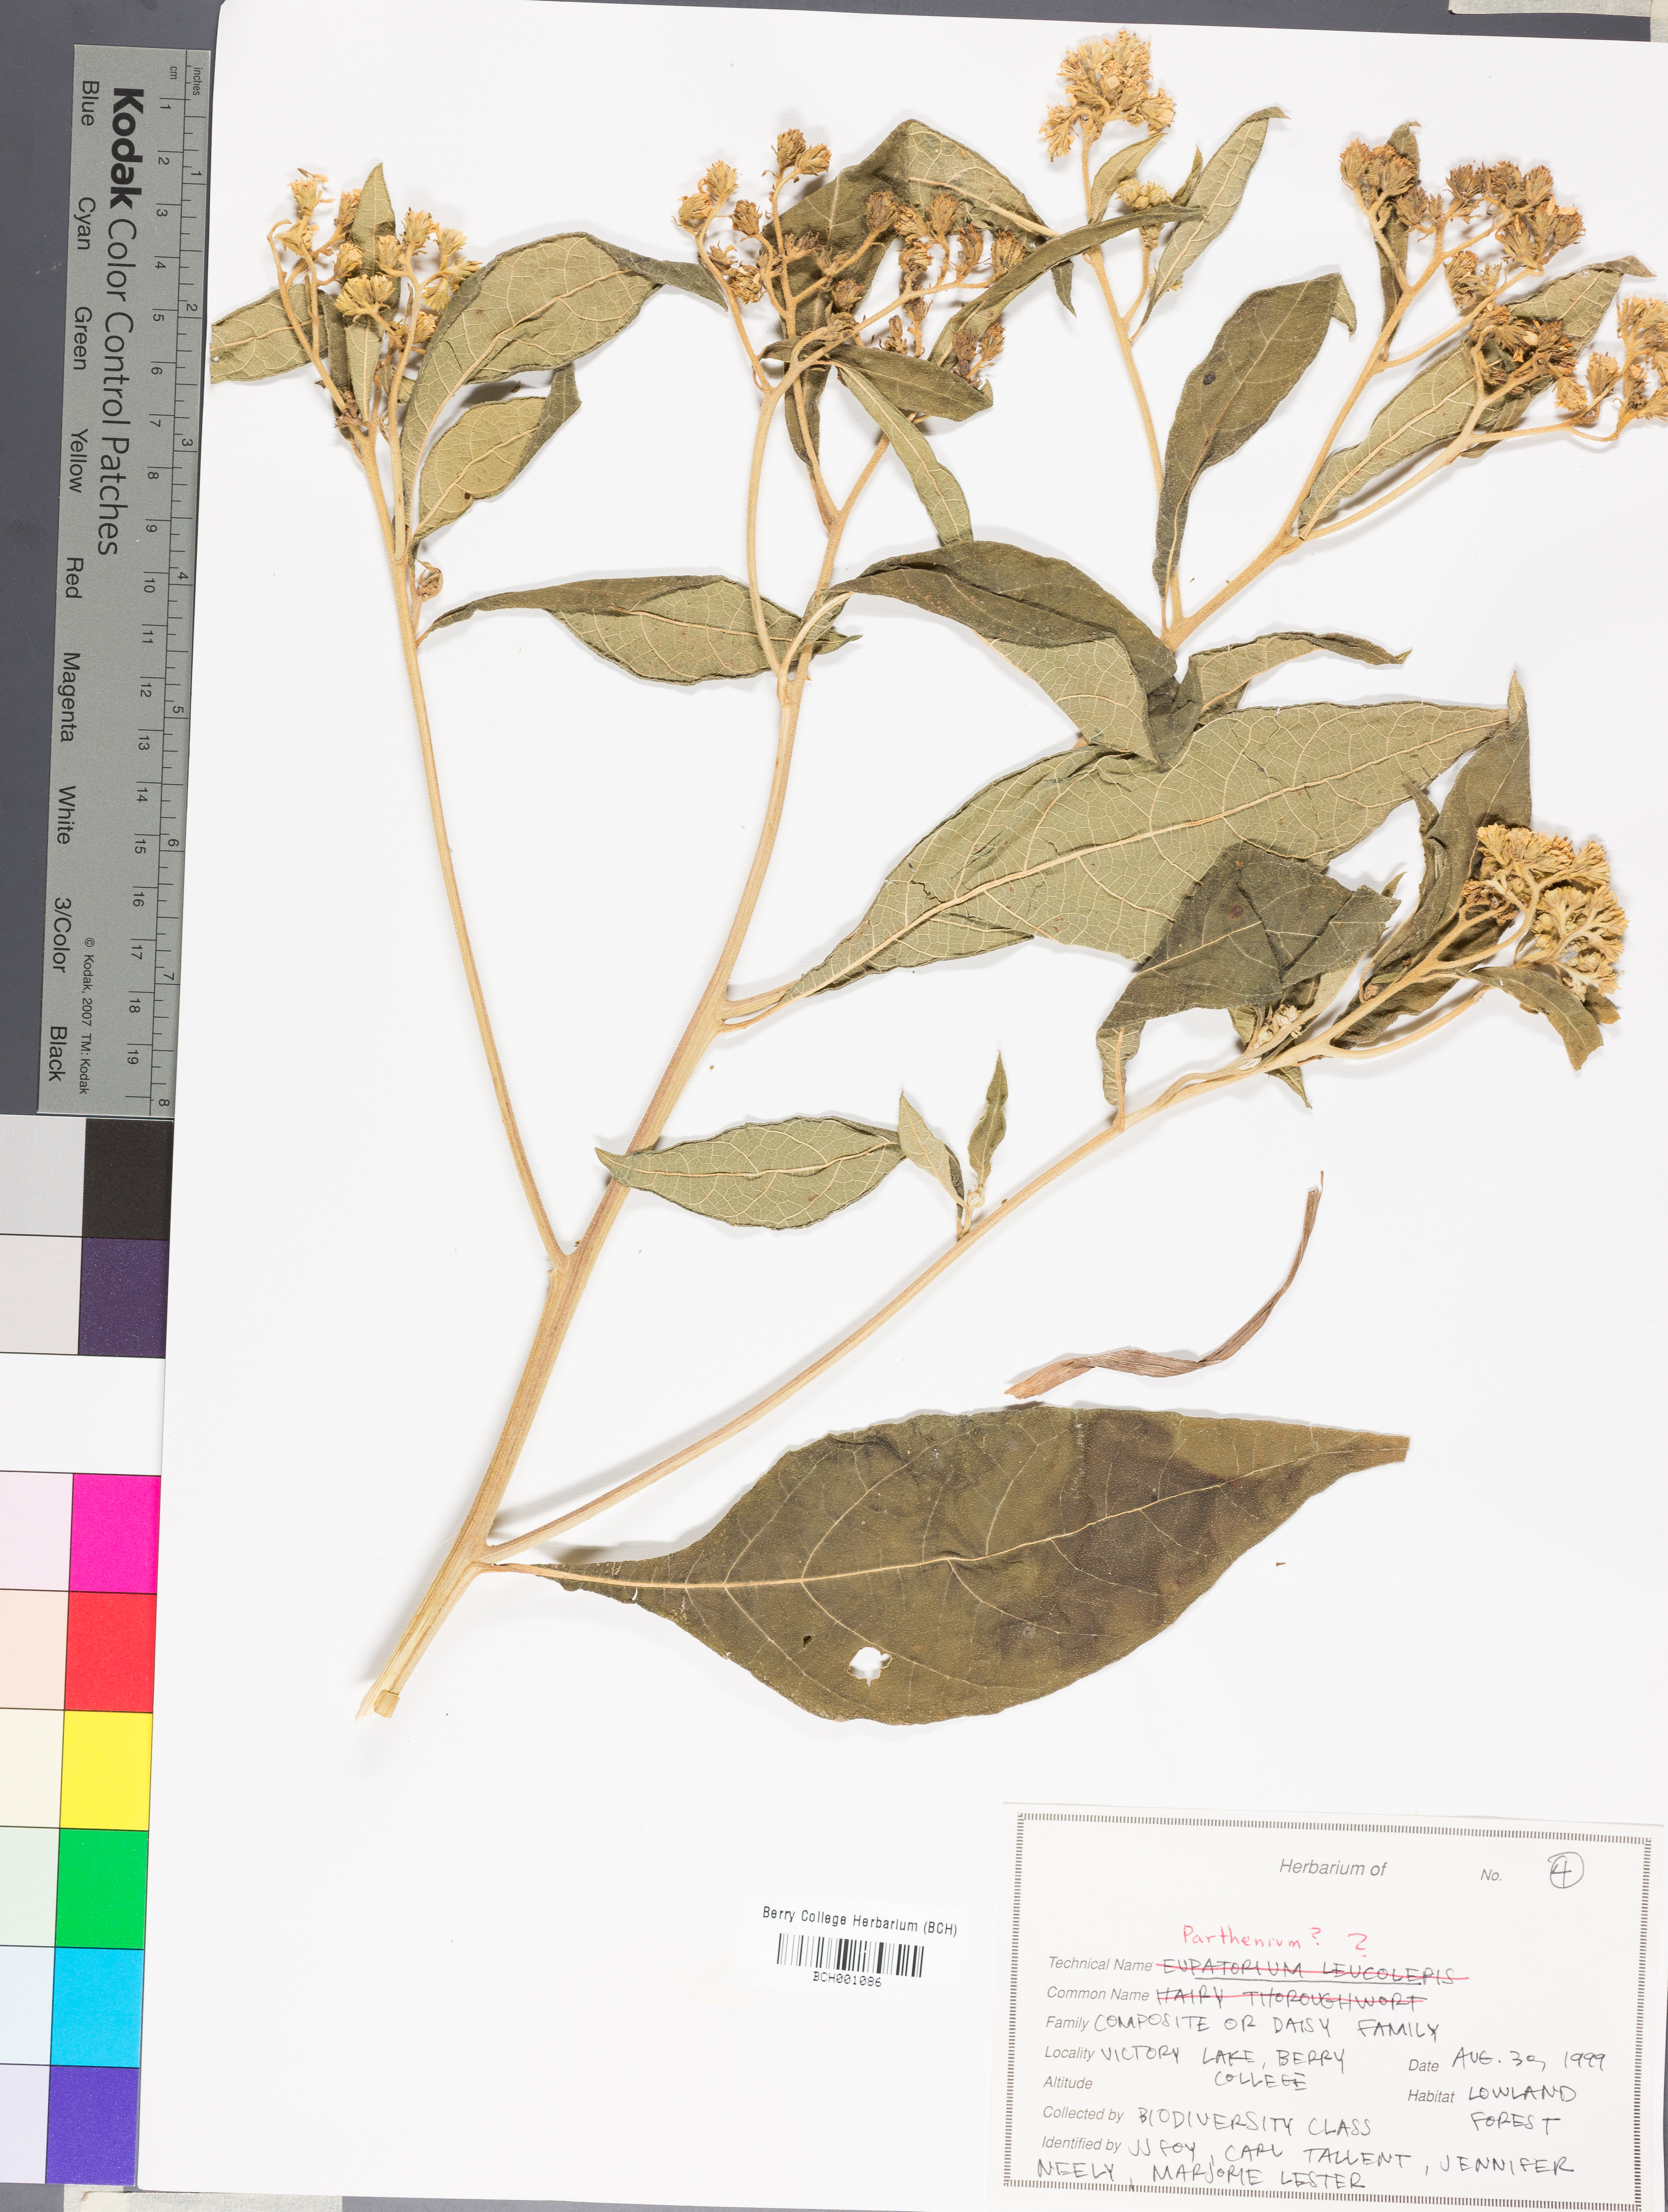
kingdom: Plantae
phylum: Tracheophyta
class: Magnoliopsida
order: Asterales
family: Asteraceae
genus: Parthenium
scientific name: Parthenium
